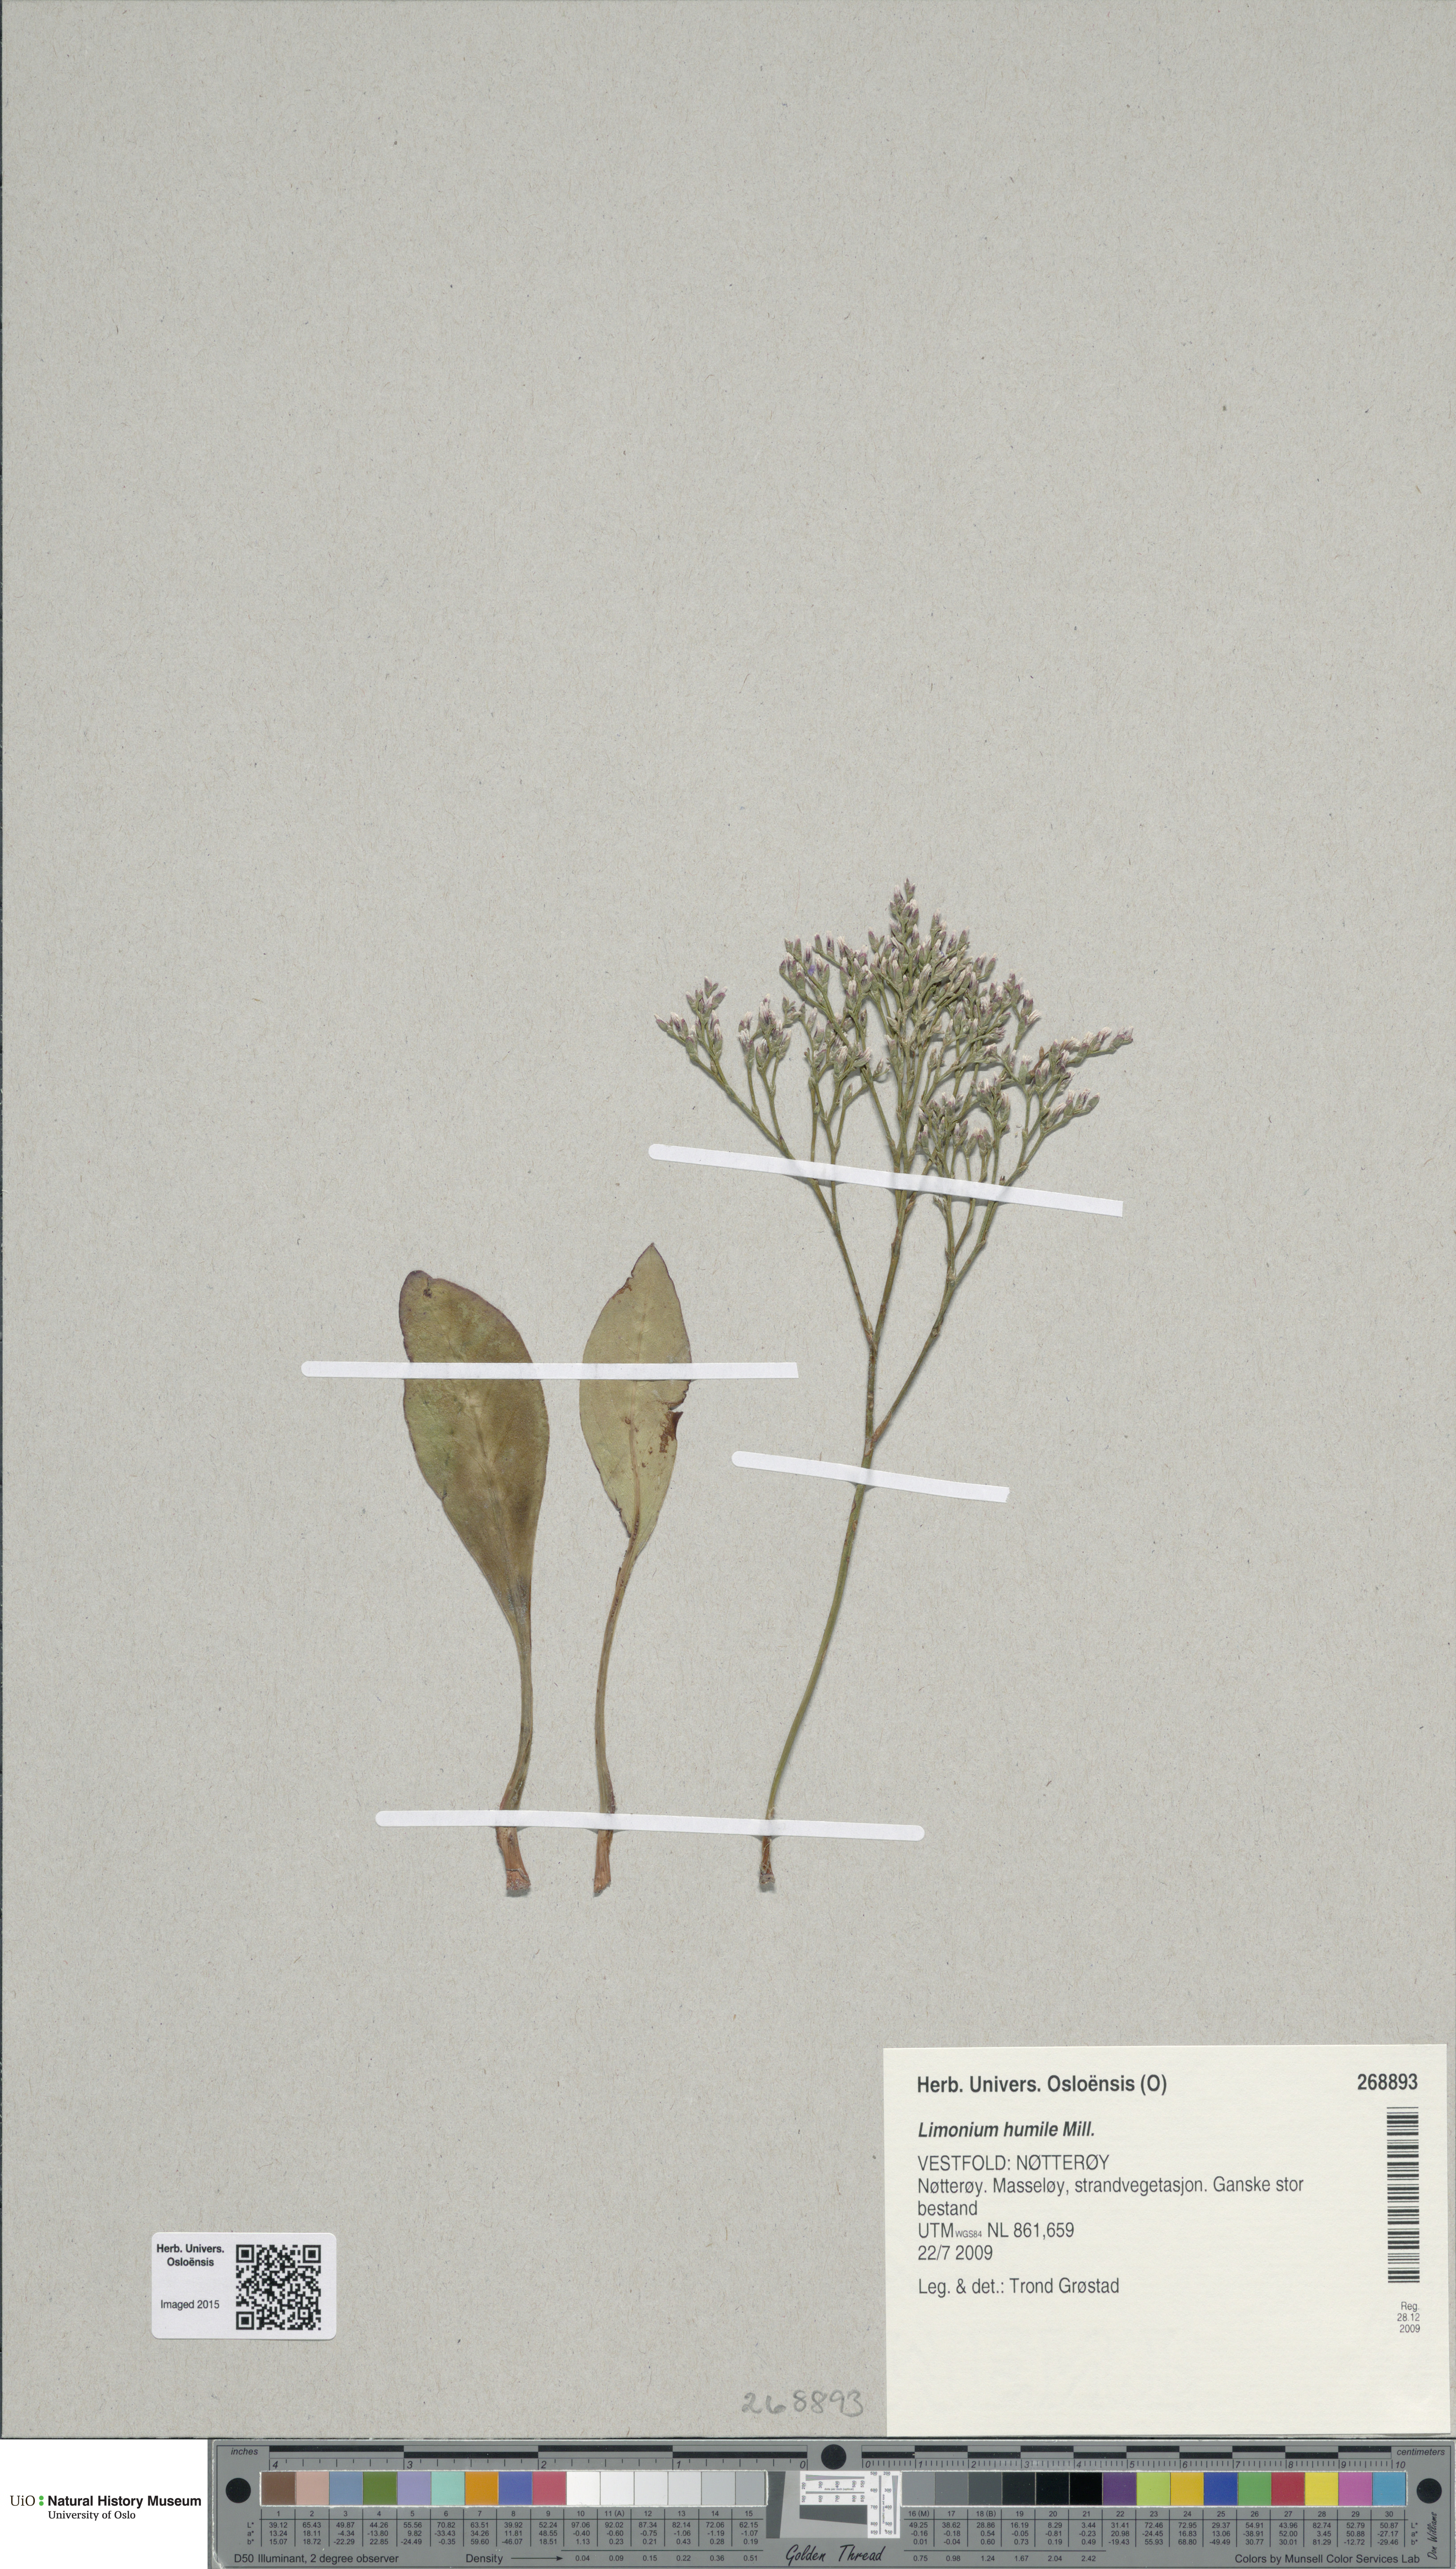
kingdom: Plantae
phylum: Tracheophyta
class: Magnoliopsida
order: Caryophyllales
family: Plumbaginaceae
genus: Limonium
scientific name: Limonium humile
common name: Lax-flowered sea-lavender
